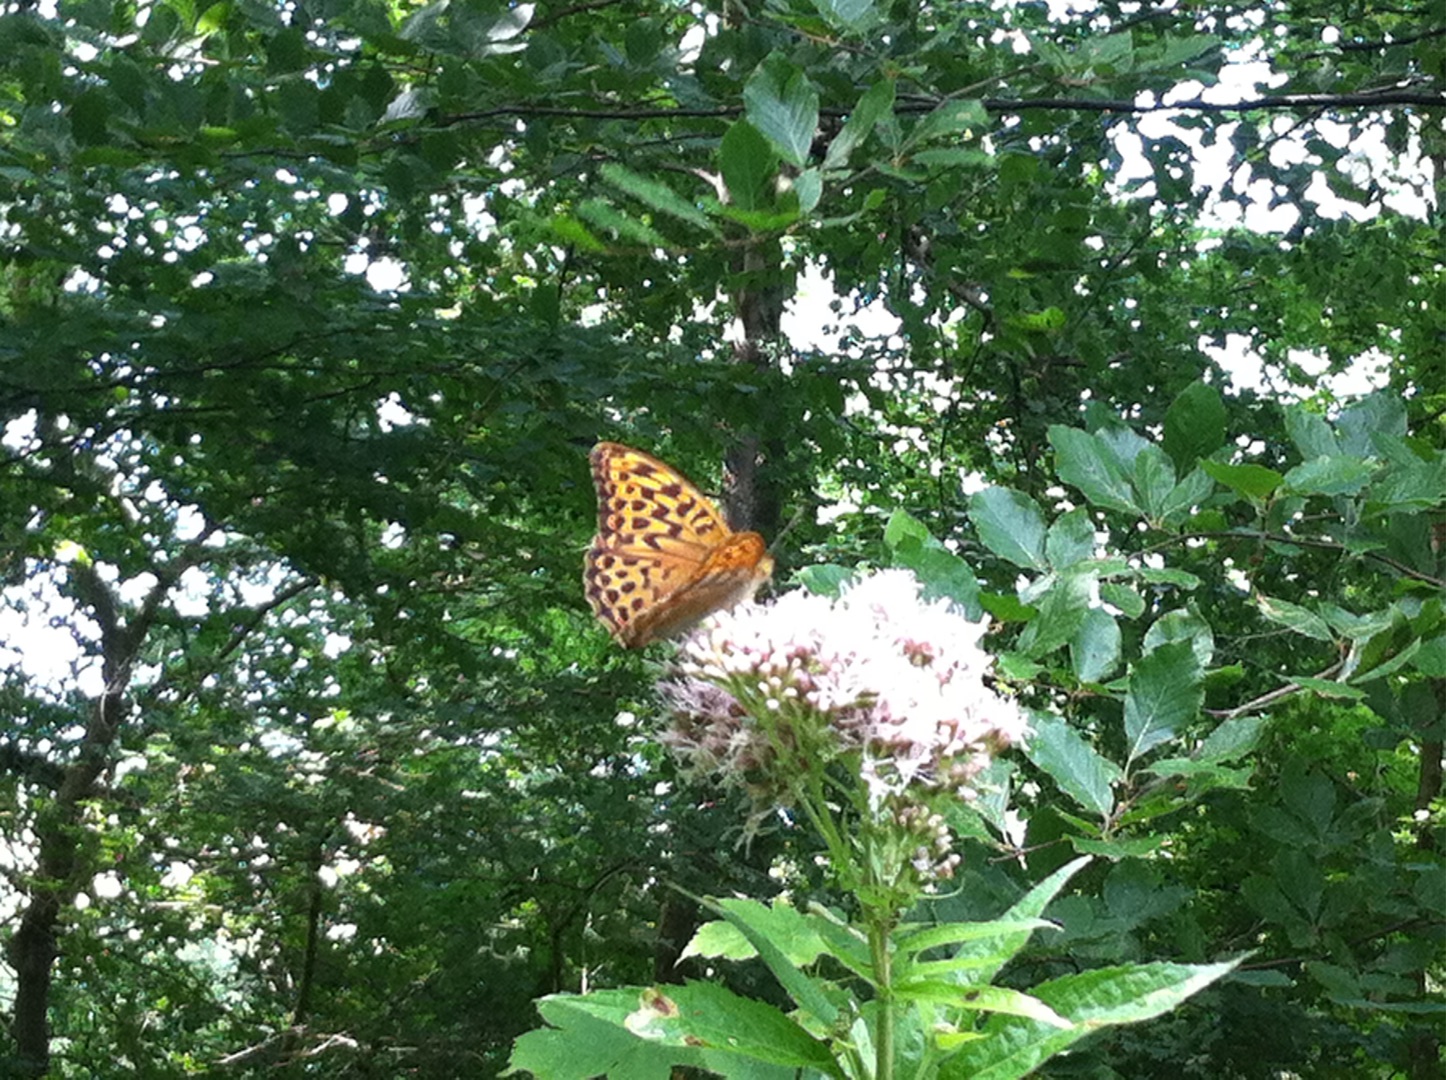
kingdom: Animalia
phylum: Arthropoda
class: Insecta
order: Lepidoptera
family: Nymphalidae
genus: Argynnis
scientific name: Argynnis paphia
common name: Kejserkåbe
